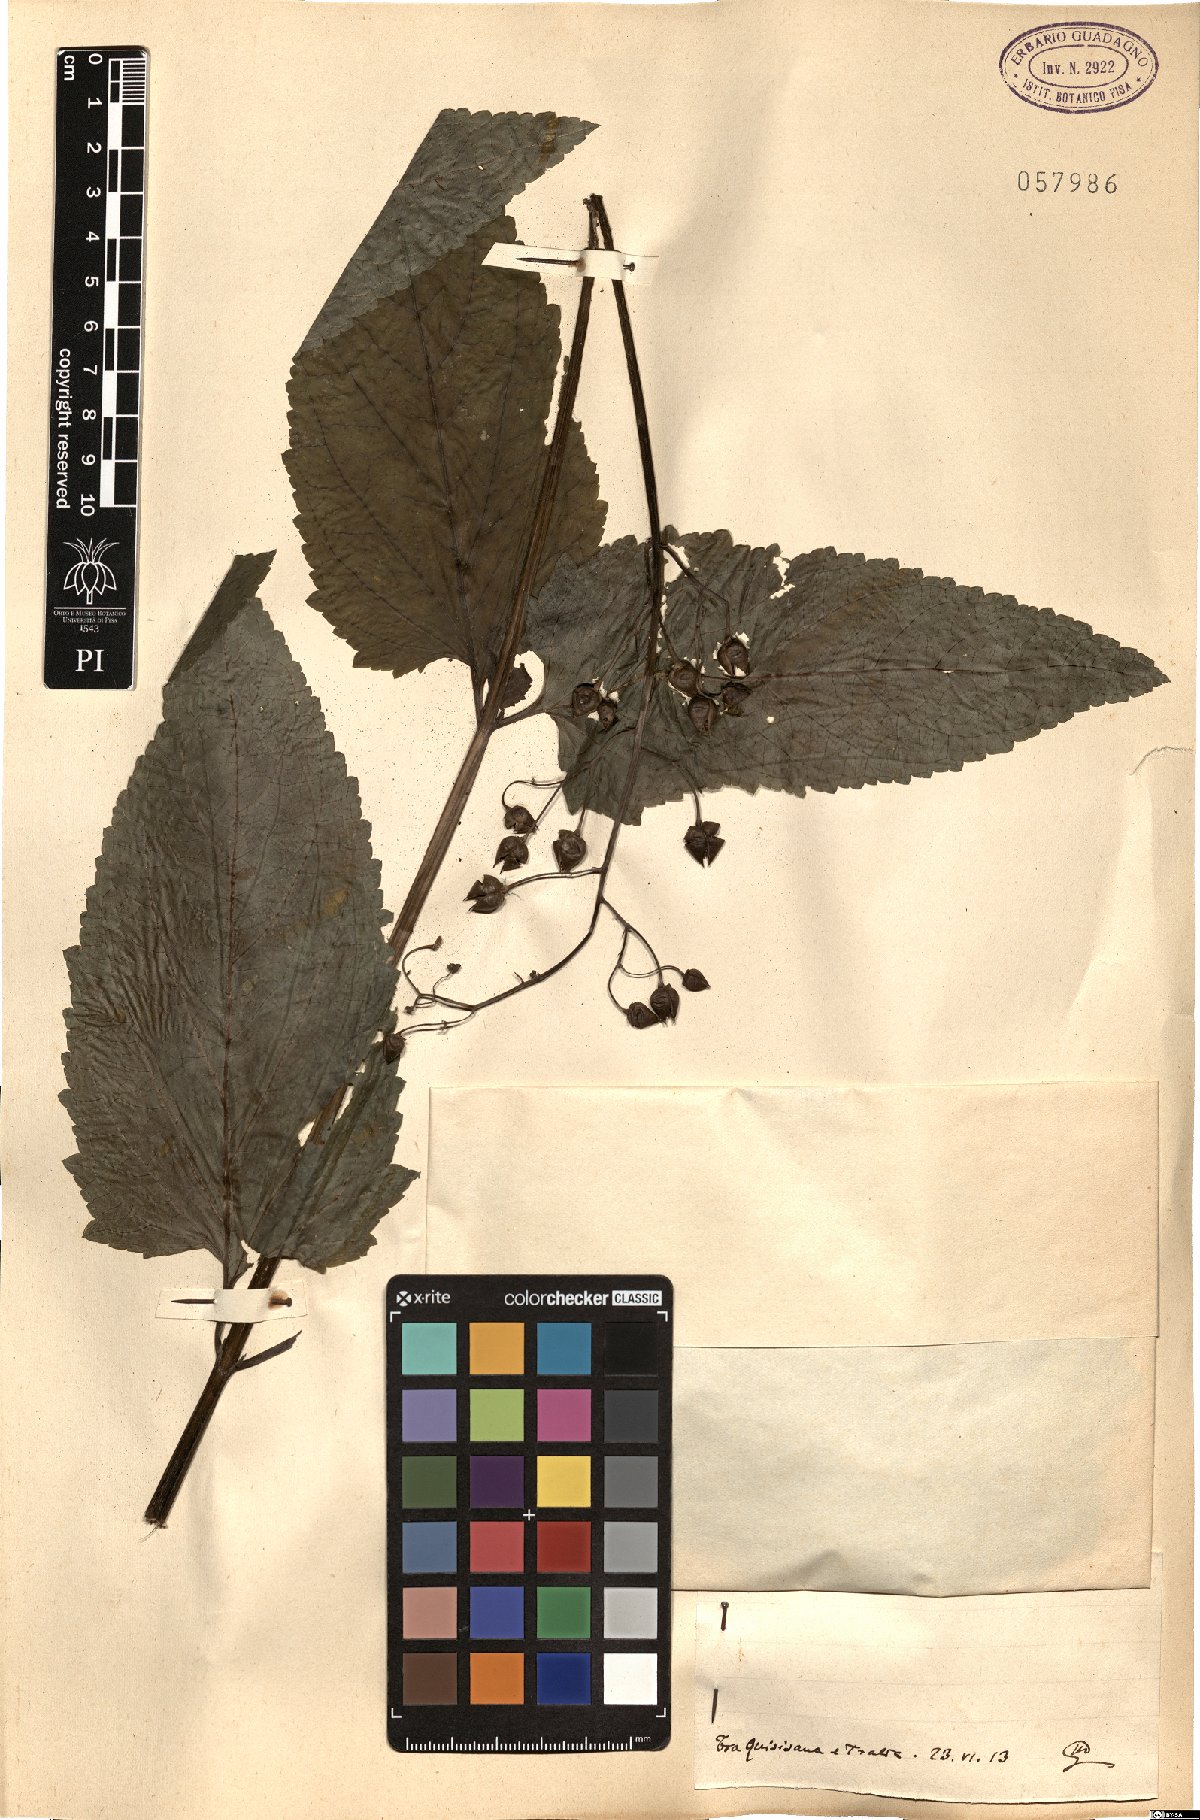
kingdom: Plantae
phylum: Tracheophyta
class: Magnoliopsida
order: Lamiales
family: Scrophulariaceae
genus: Scrophularia
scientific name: Scrophularia nodosa
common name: Common figwort
